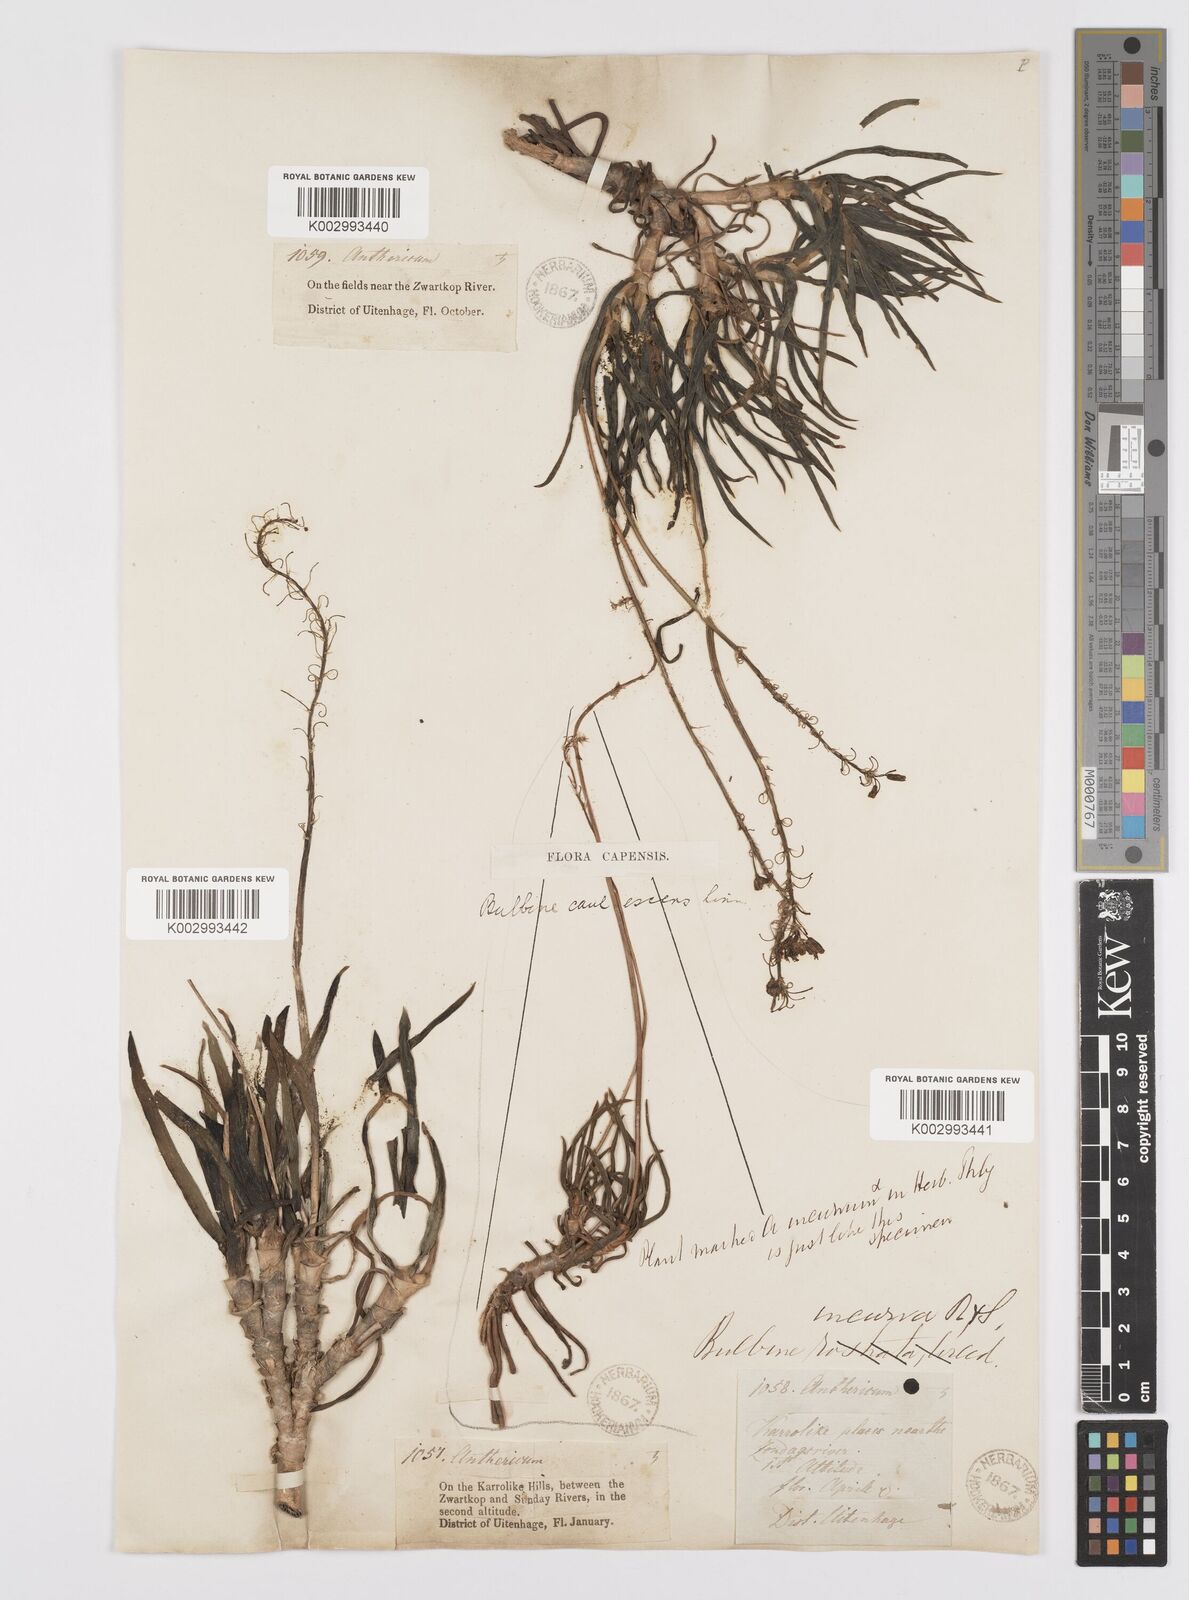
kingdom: Plantae
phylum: Tracheophyta
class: Liliopsida
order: Asparagales
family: Asphodelaceae
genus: Bulbine
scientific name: Bulbine frutescens
